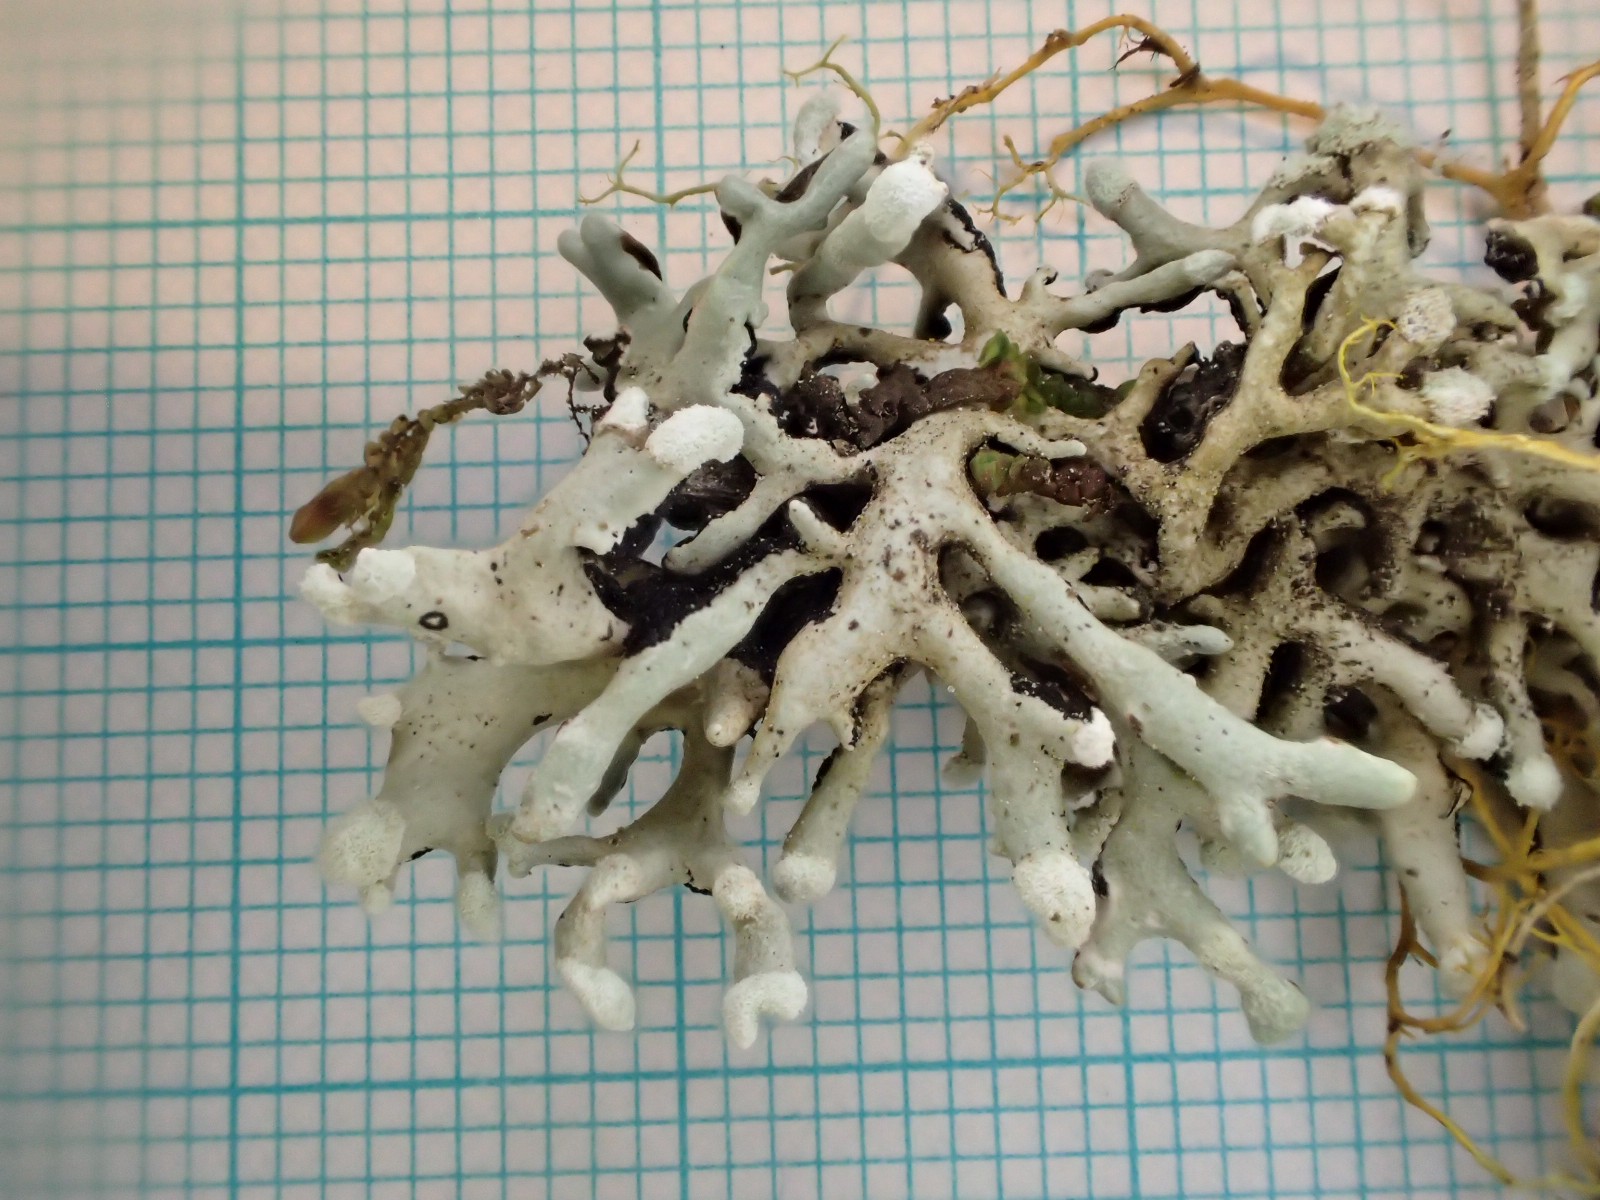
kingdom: Fungi
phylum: Ascomycota
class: Lecanoromycetes
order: Lecanorales
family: Parmeliaceae
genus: Hypogymnia
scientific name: Hypogymnia tubulosa
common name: finger-kvistlav
